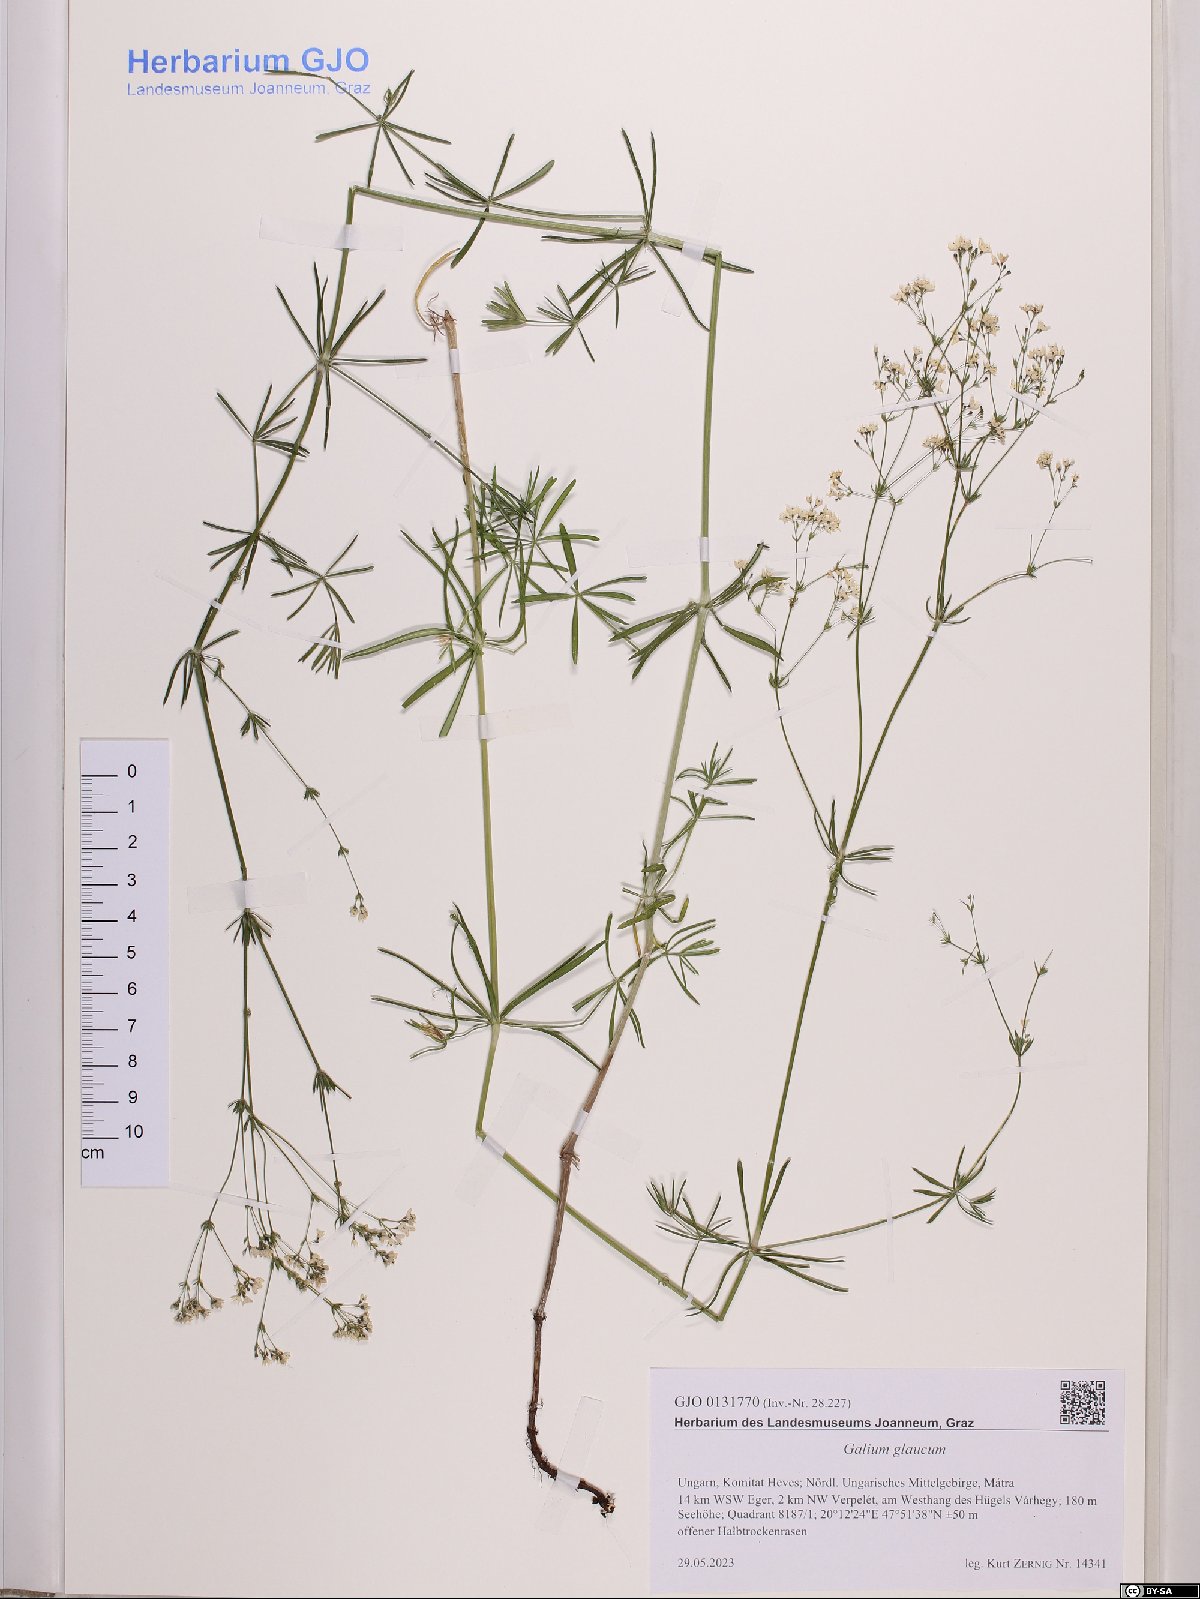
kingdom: Plantae
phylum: Tracheophyta
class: Magnoliopsida
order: Gentianales
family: Rubiaceae
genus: Galium
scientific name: Galium glaucum
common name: Waxy bedstraw
